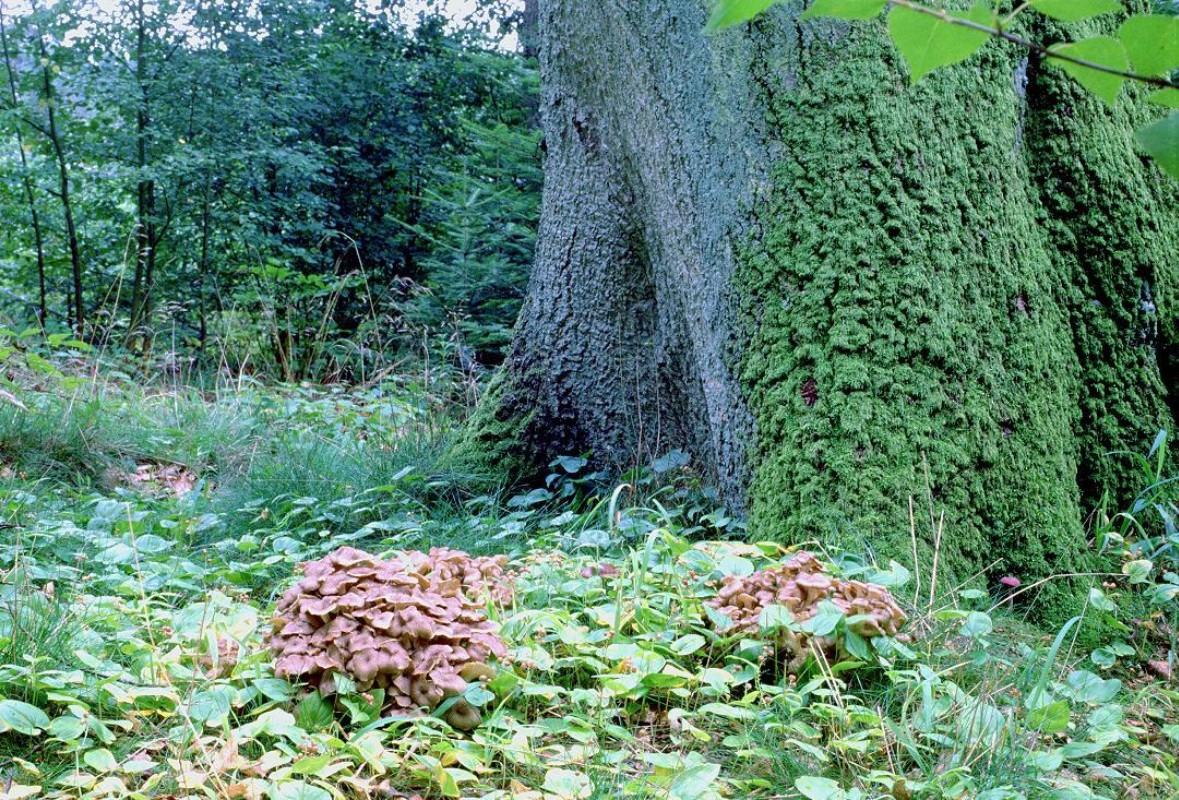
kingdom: Fungi
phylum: Basidiomycota
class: Agaricomycetes
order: Polyporales
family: Polyporaceae
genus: Polyporus
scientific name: Polyporus umbellatus
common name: skærmformet stilkporesvamp
